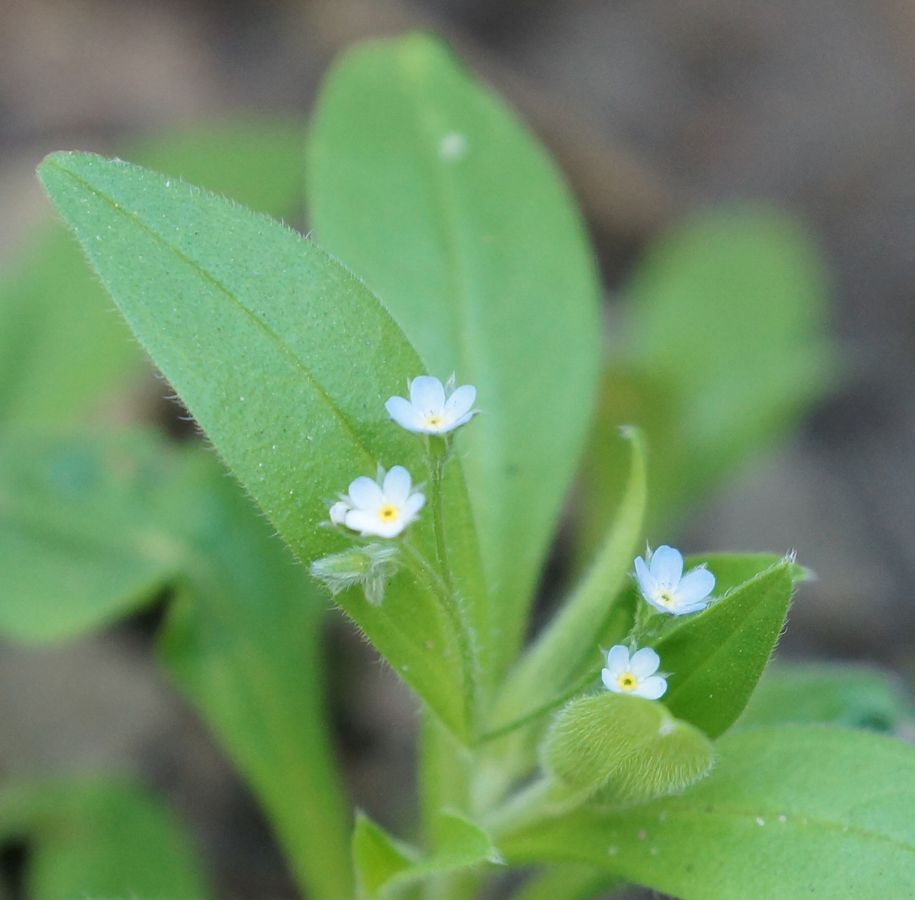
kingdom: Plantae
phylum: Tracheophyta
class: Magnoliopsida
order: Boraginales
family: Boraginaceae
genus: Myosotis
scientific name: Myosotis
